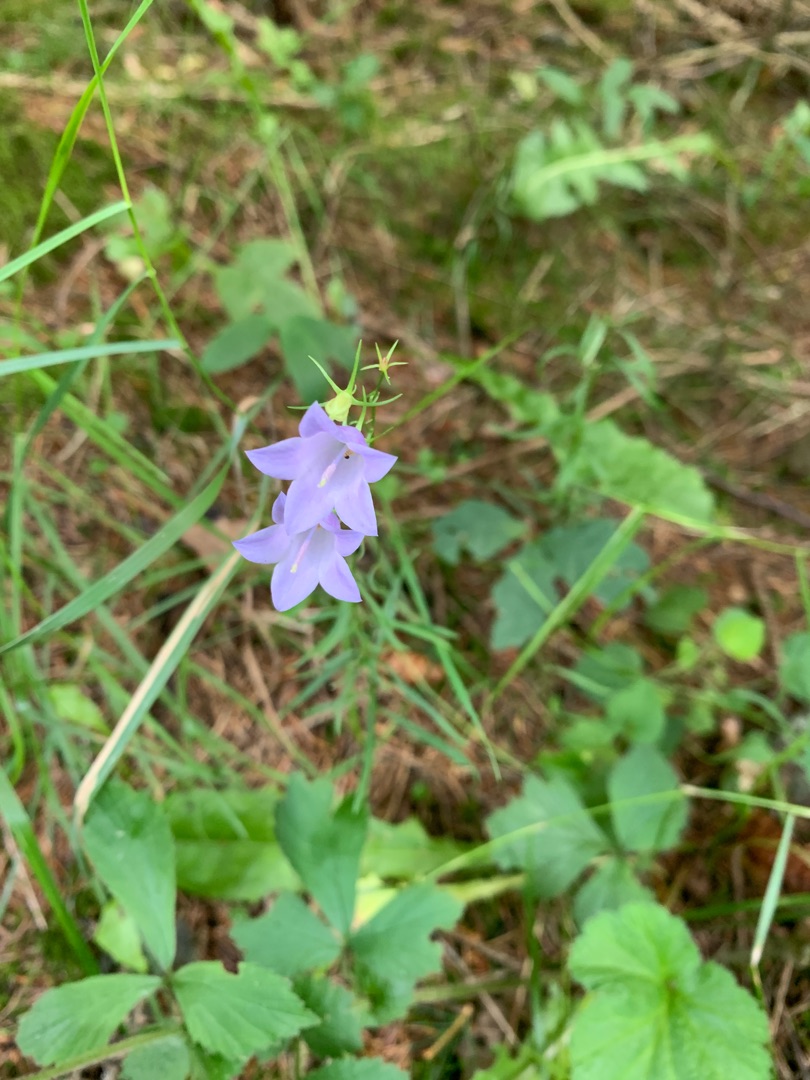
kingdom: Plantae
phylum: Tracheophyta
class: Magnoliopsida
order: Asterales
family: Campanulaceae
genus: Campanula
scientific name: Campanula rotundifolia
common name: Liden klokke
